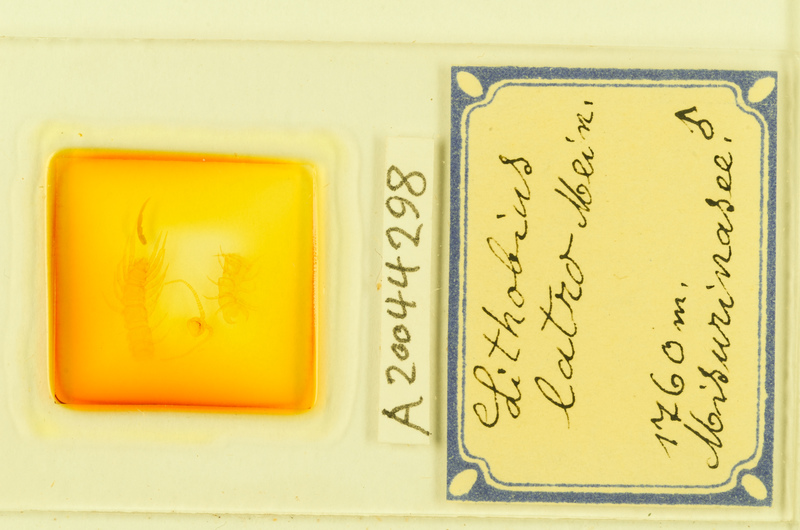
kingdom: Animalia
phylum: Arthropoda
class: Chilopoda
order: Lithobiomorpha
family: Lithobiidae
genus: Lithobius
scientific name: Lithobius latro
